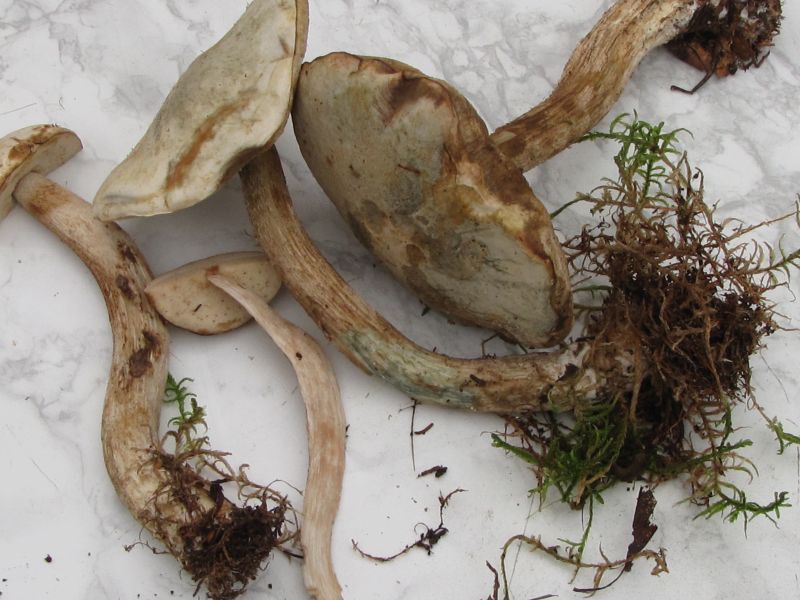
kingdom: Fungi
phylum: Basidiomycota
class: Agaricomycetes
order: Boletales
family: Boletaceae
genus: Leccinum
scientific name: Leccinum scabrum
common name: hvid skælrørhat
